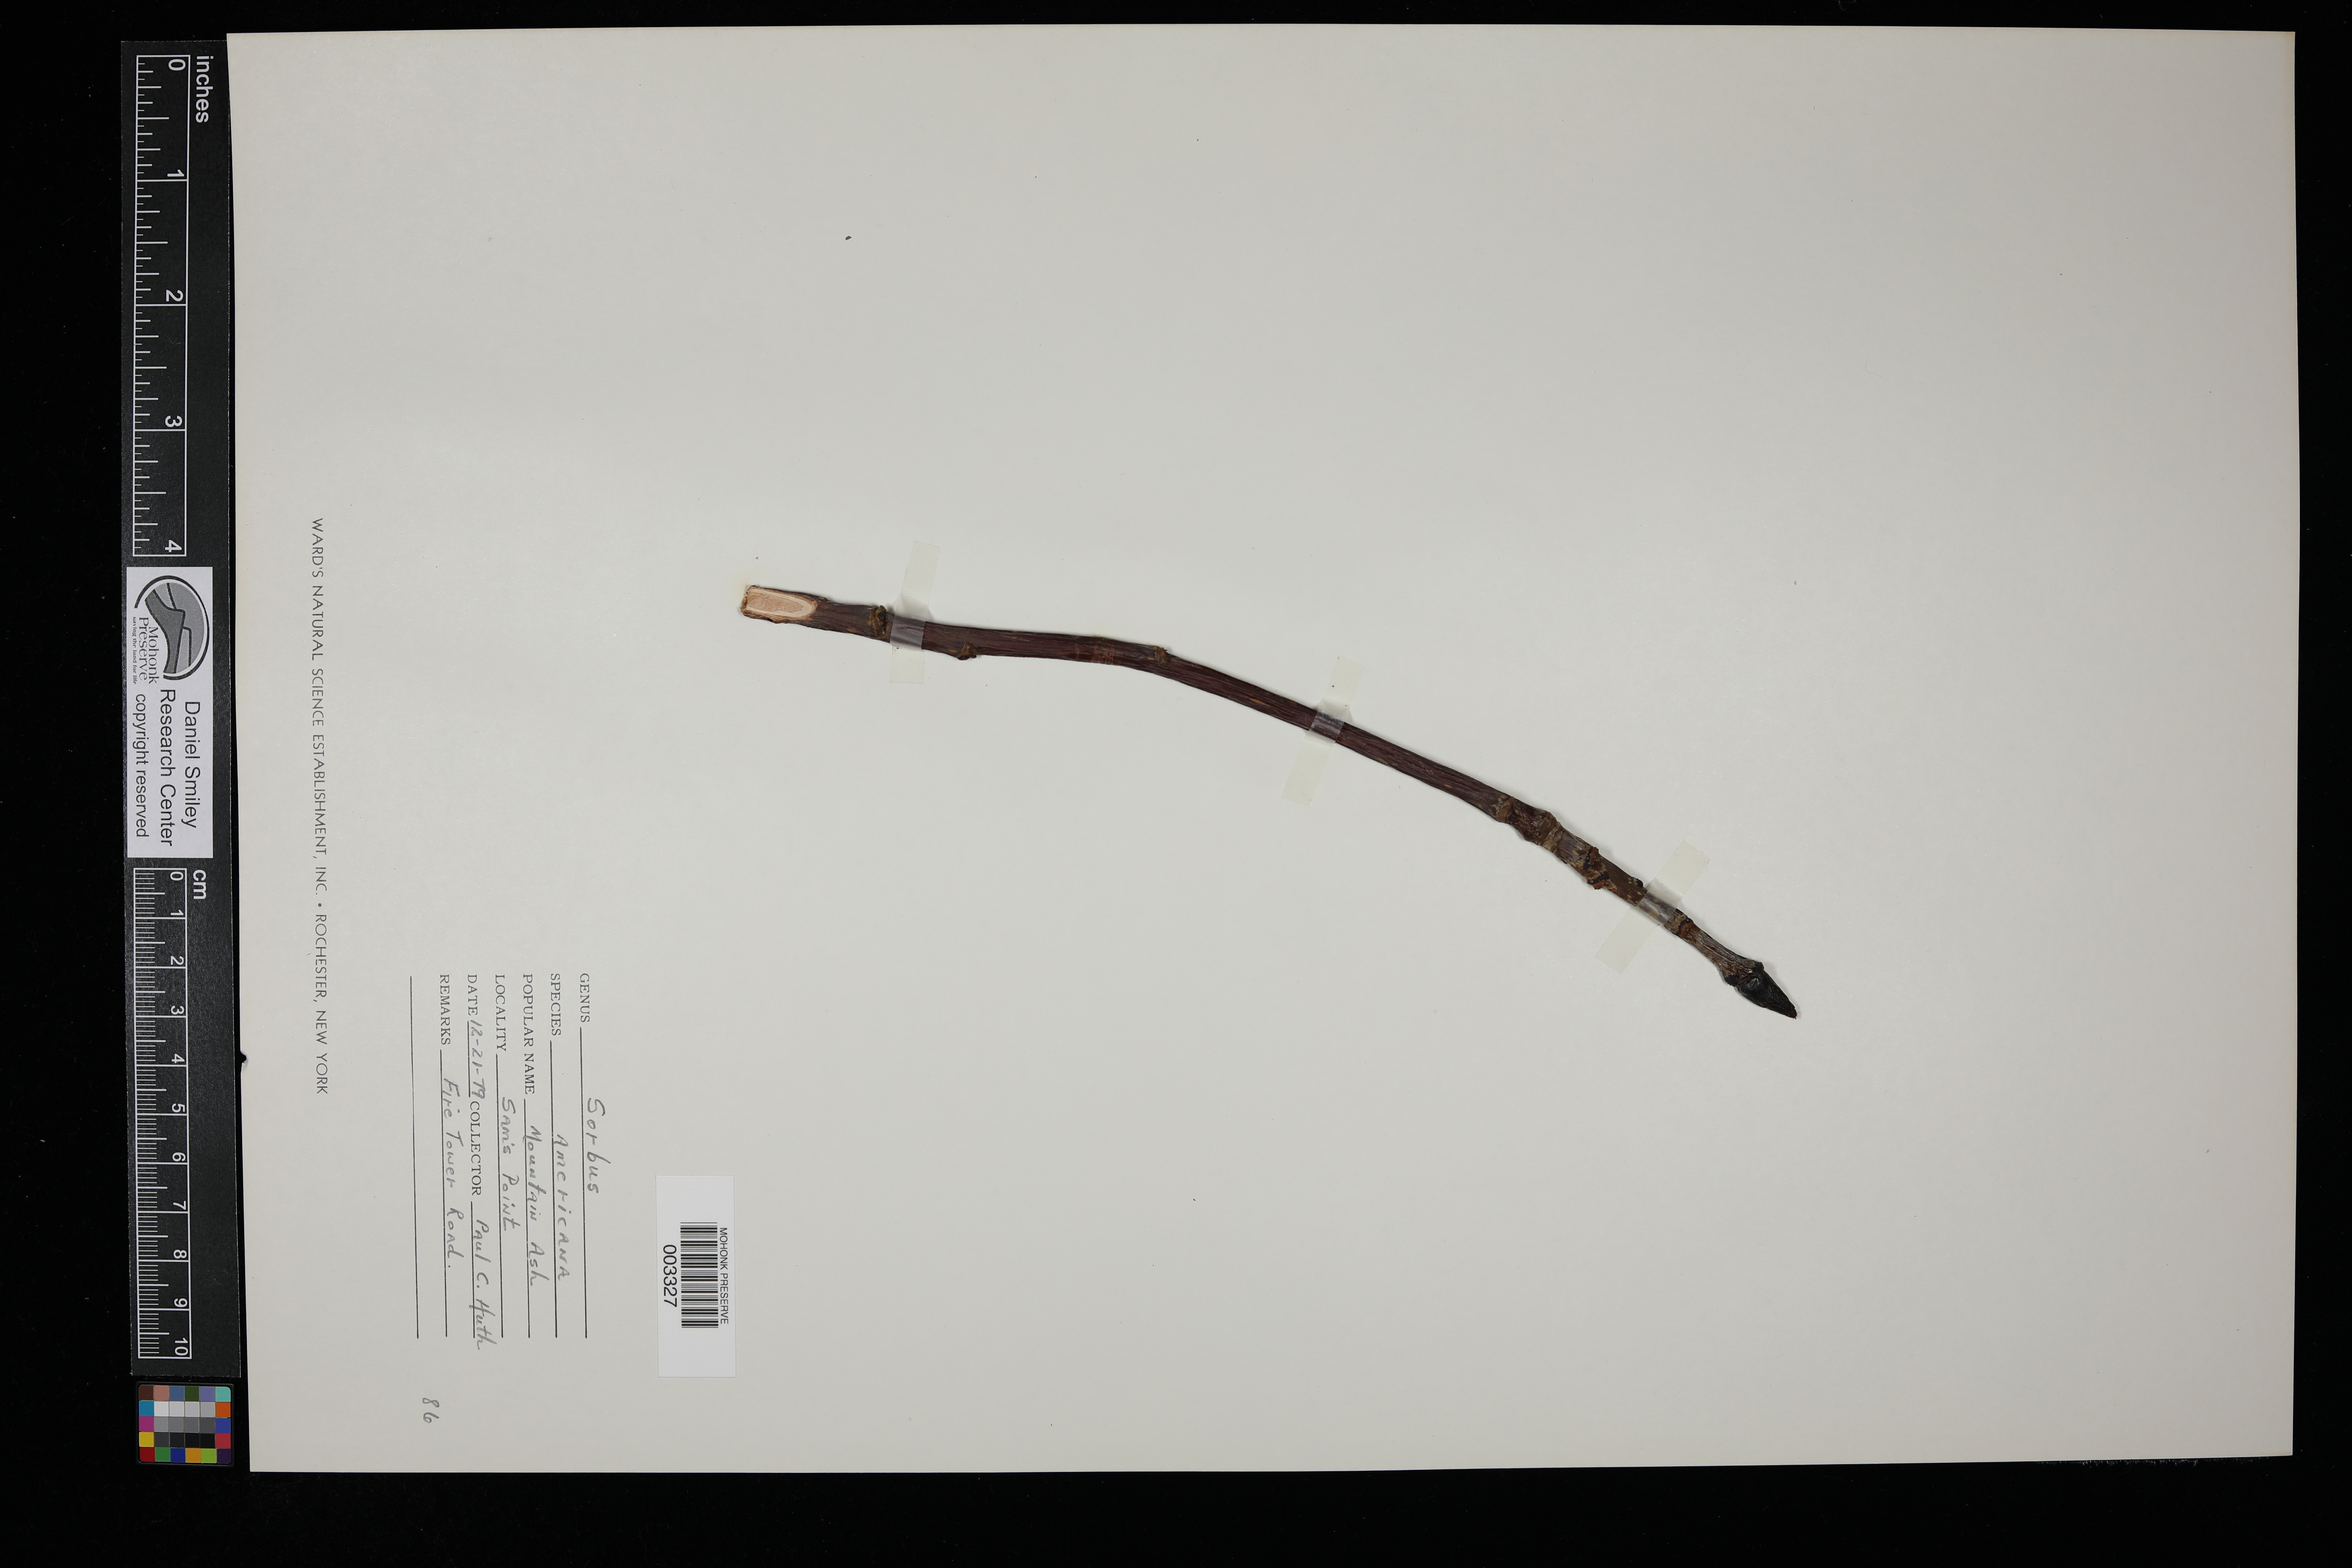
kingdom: Plantae
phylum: Tracheophyta
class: Magnoliopsida
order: Rosales
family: Rosaceae
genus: Sorbus
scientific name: Sorbus americana
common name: American mountain-ash
